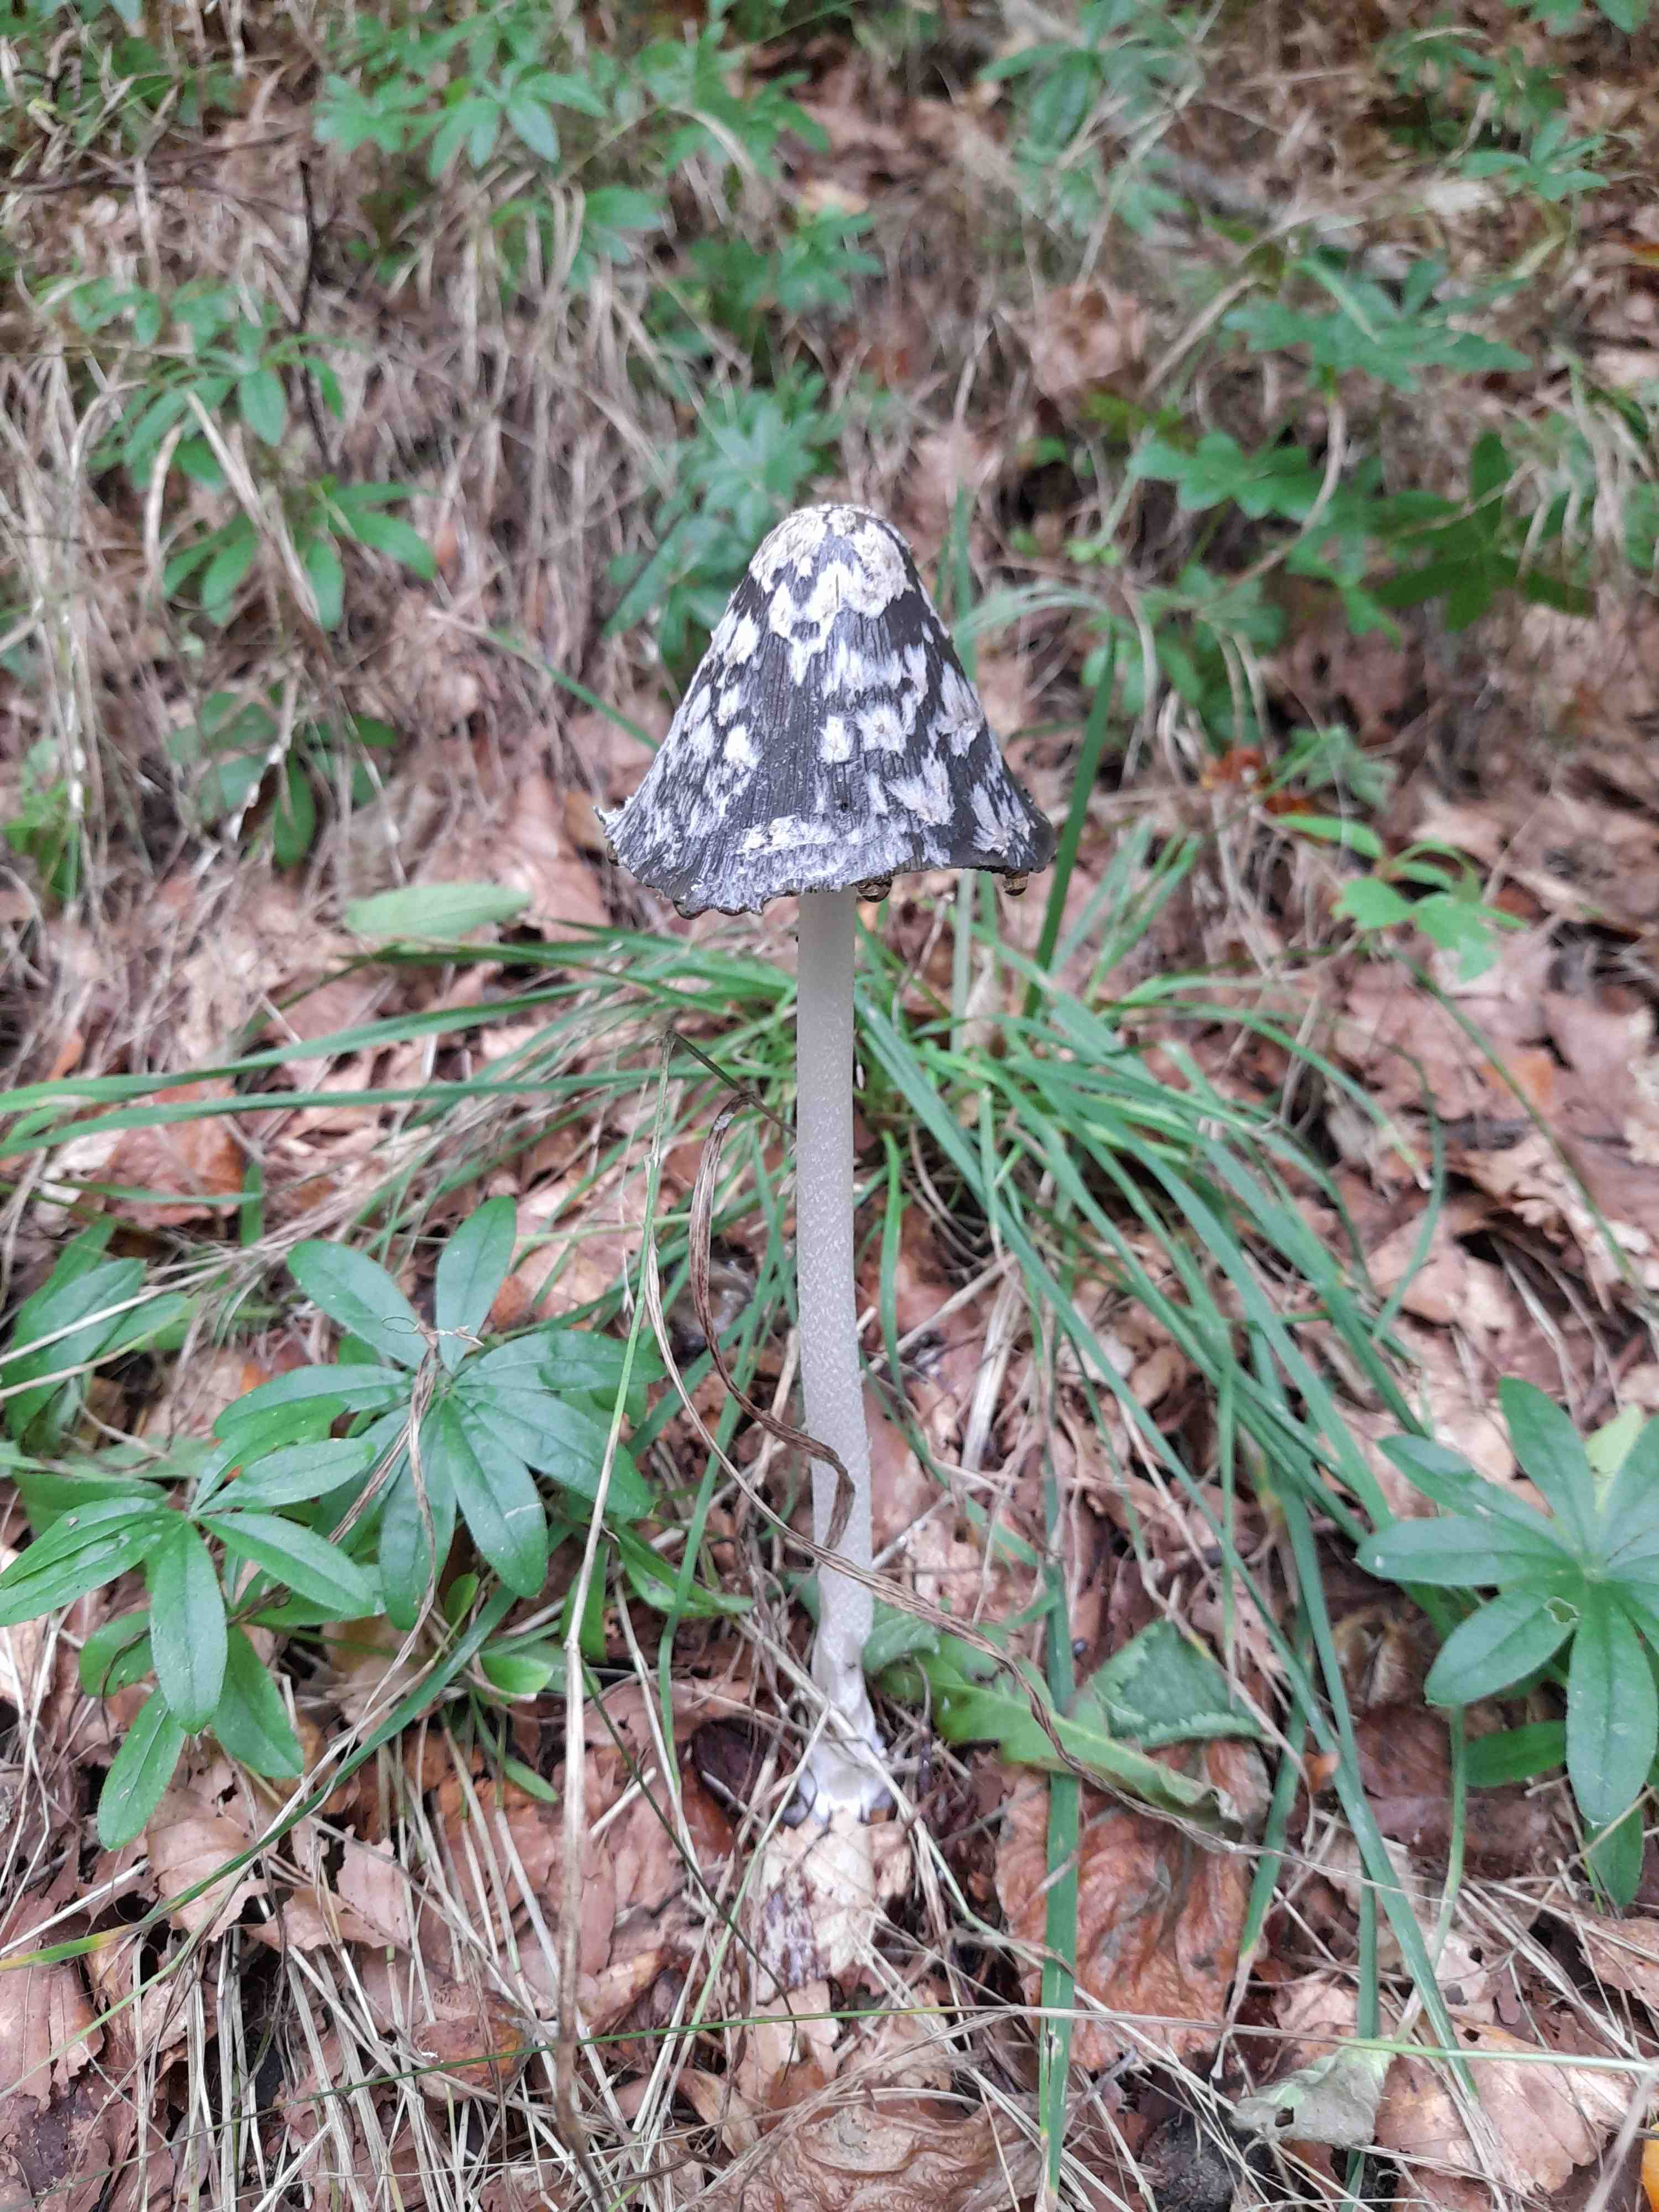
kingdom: Fungi
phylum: Basidiomycota
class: Agaricomycetes
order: Agaricales
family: Psathyrellaceae
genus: Coprinopsis
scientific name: Coprinopsis picacea
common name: skade-blækhat
